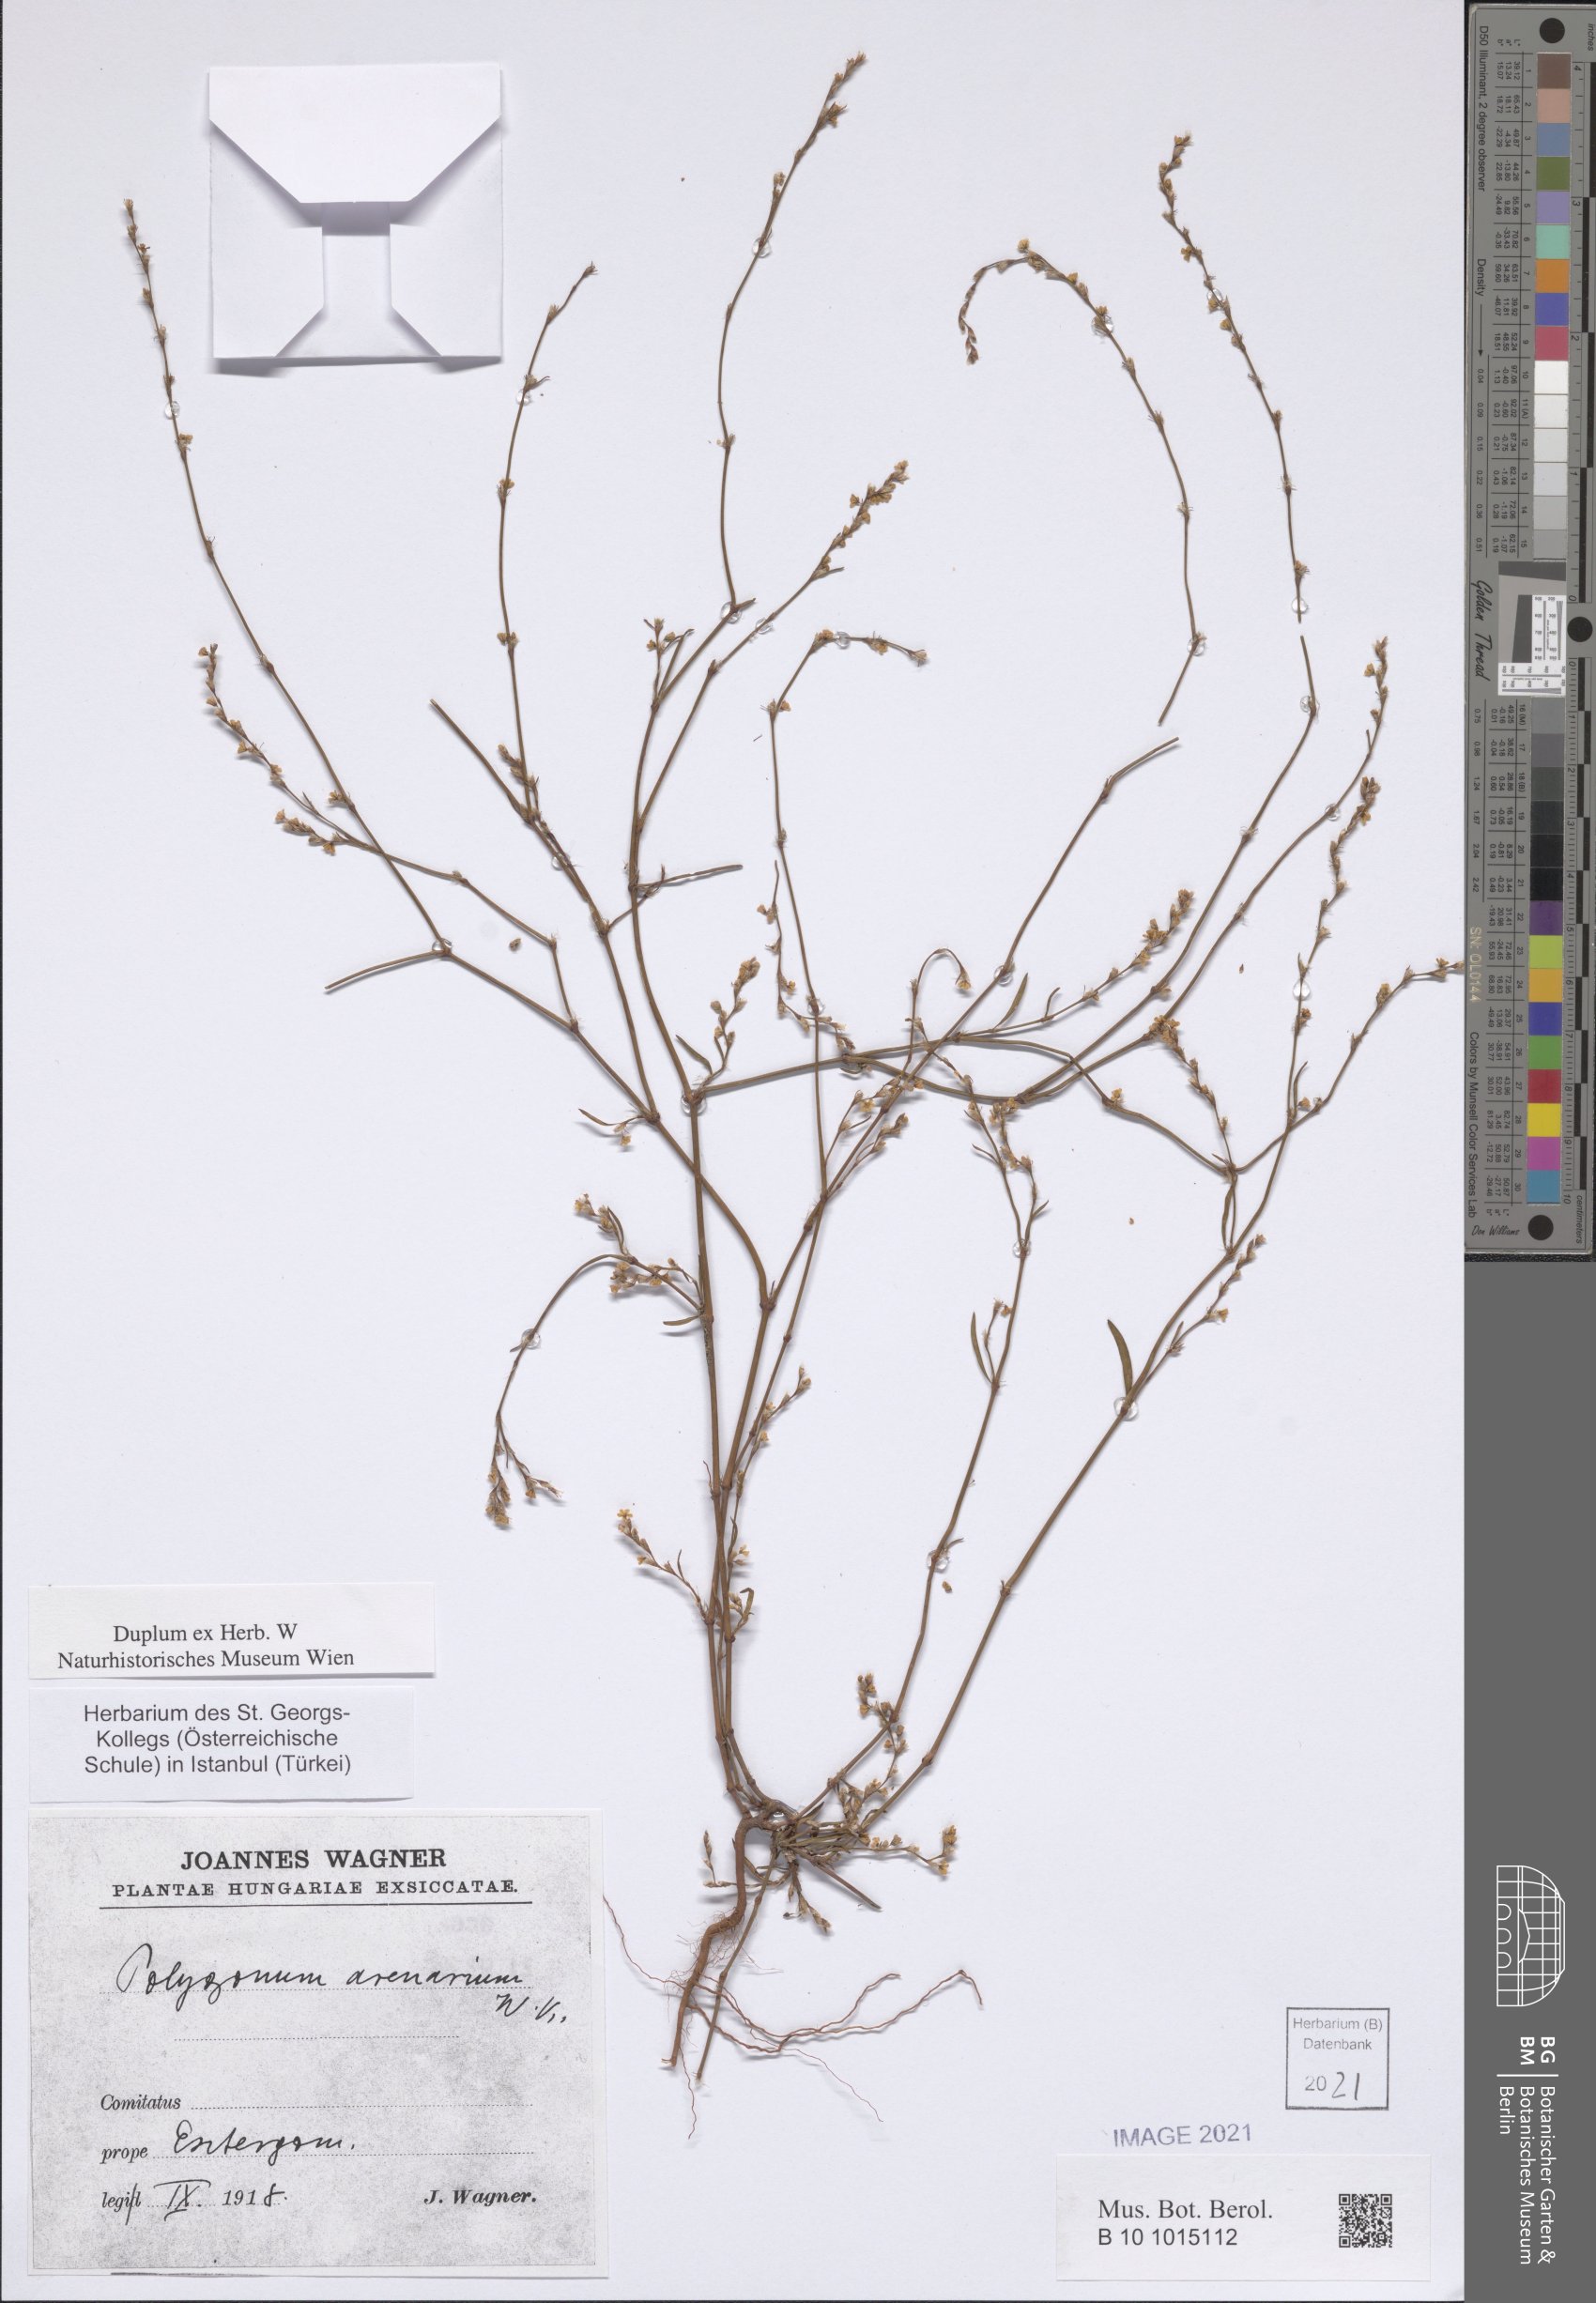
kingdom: Plantae
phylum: Tracheophyta
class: Magnoliopsida
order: Caryophyllales
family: Polygonaceae
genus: Polygonum
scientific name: Polygonum arenarium
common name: Lesser red-knotgrass
